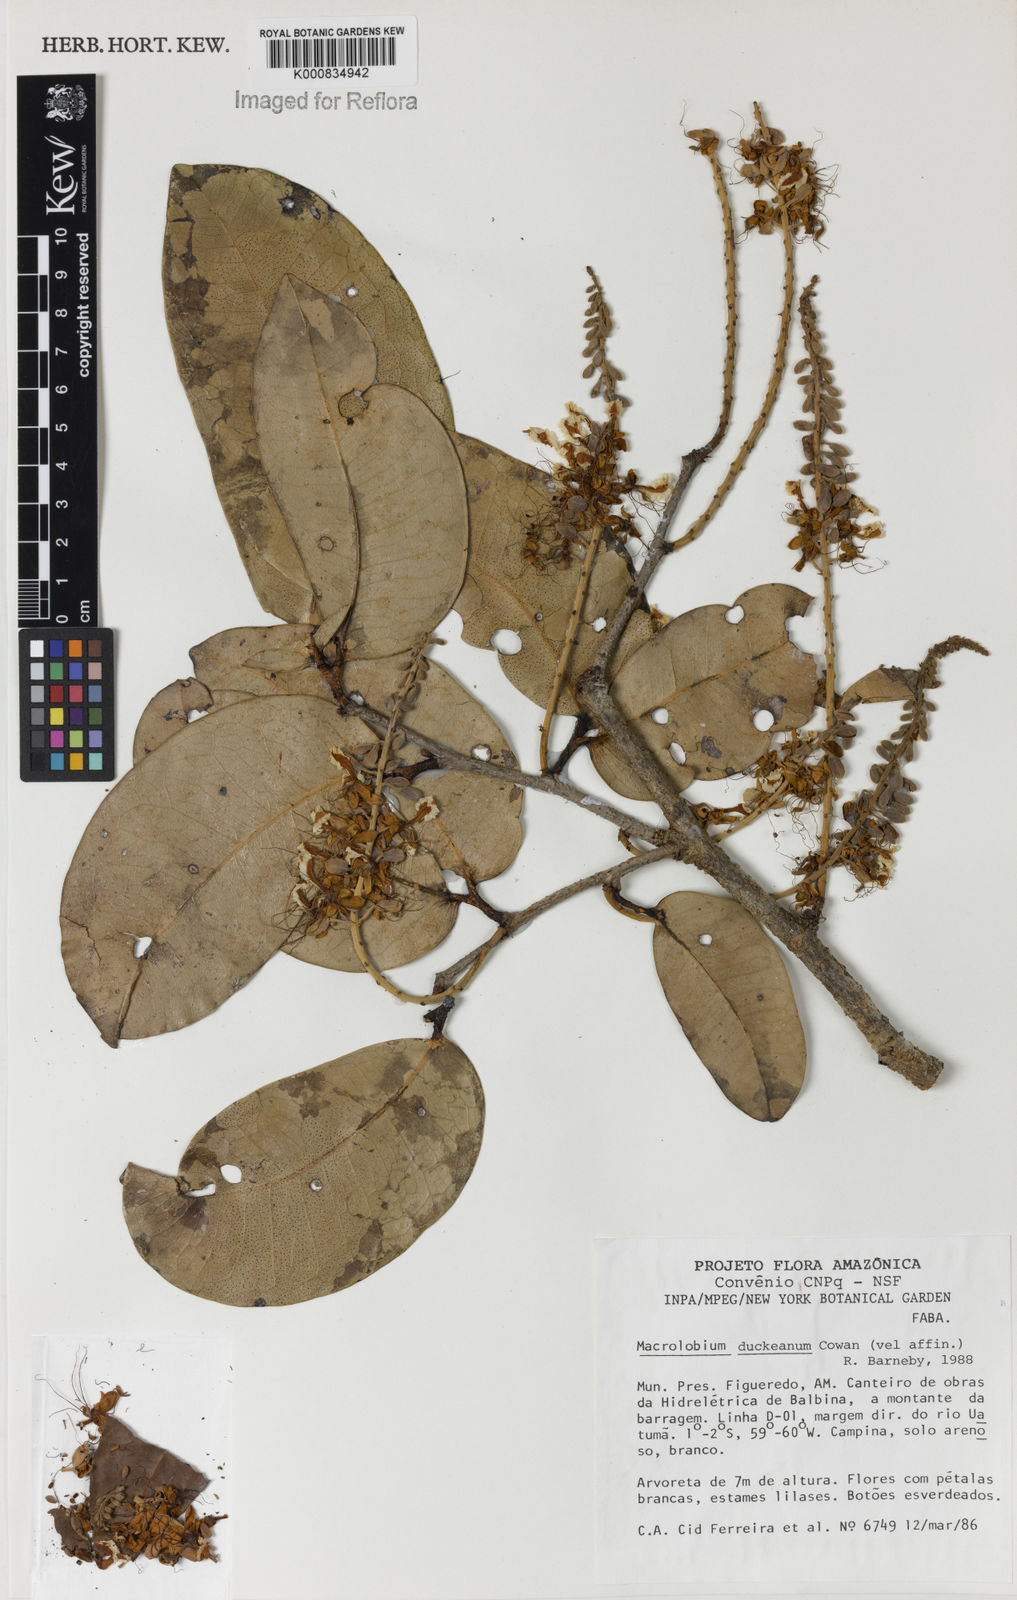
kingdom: Plantae
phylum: Tracheophyta
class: Magnoliopsida
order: Fabales
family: Fabaceae
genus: Macrolobium
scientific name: Macrolobium duckeanum
